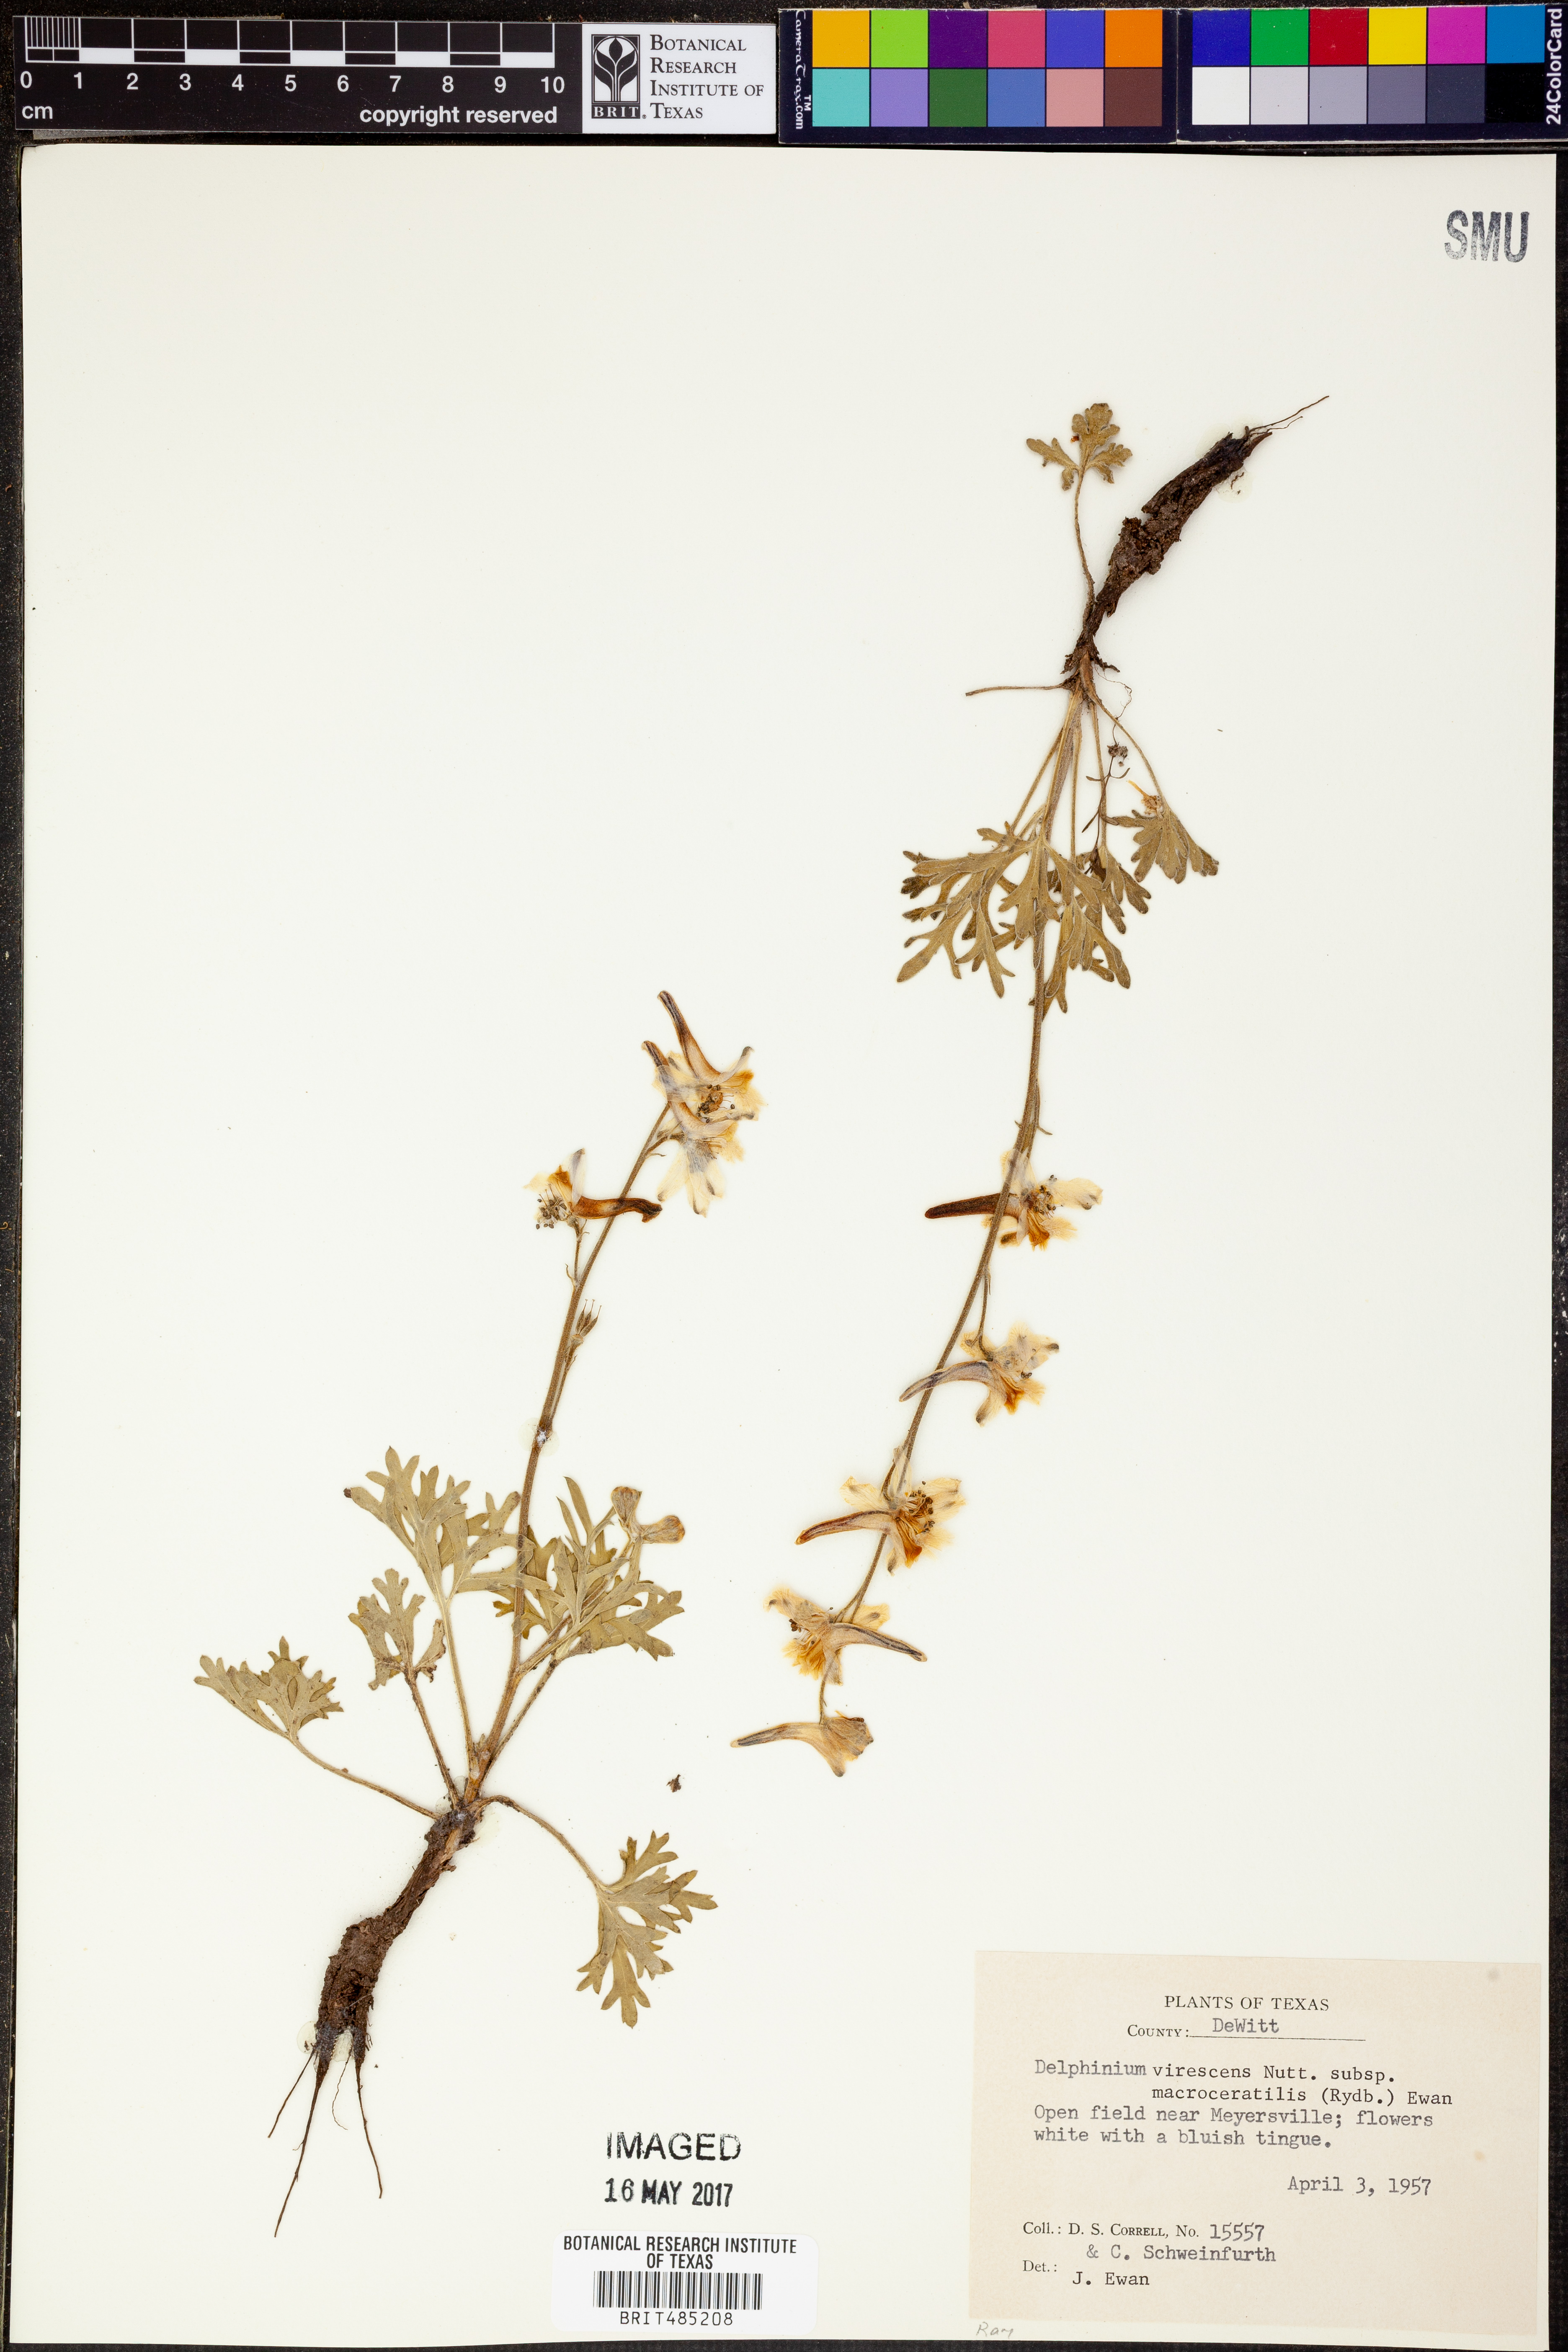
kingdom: Plantae
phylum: Tracheophyta
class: Magnoliopsida
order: Ranunculales
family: Ranunculaceae
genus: Delphinium
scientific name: Delphinium carolinianum
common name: Carolina larkspur
